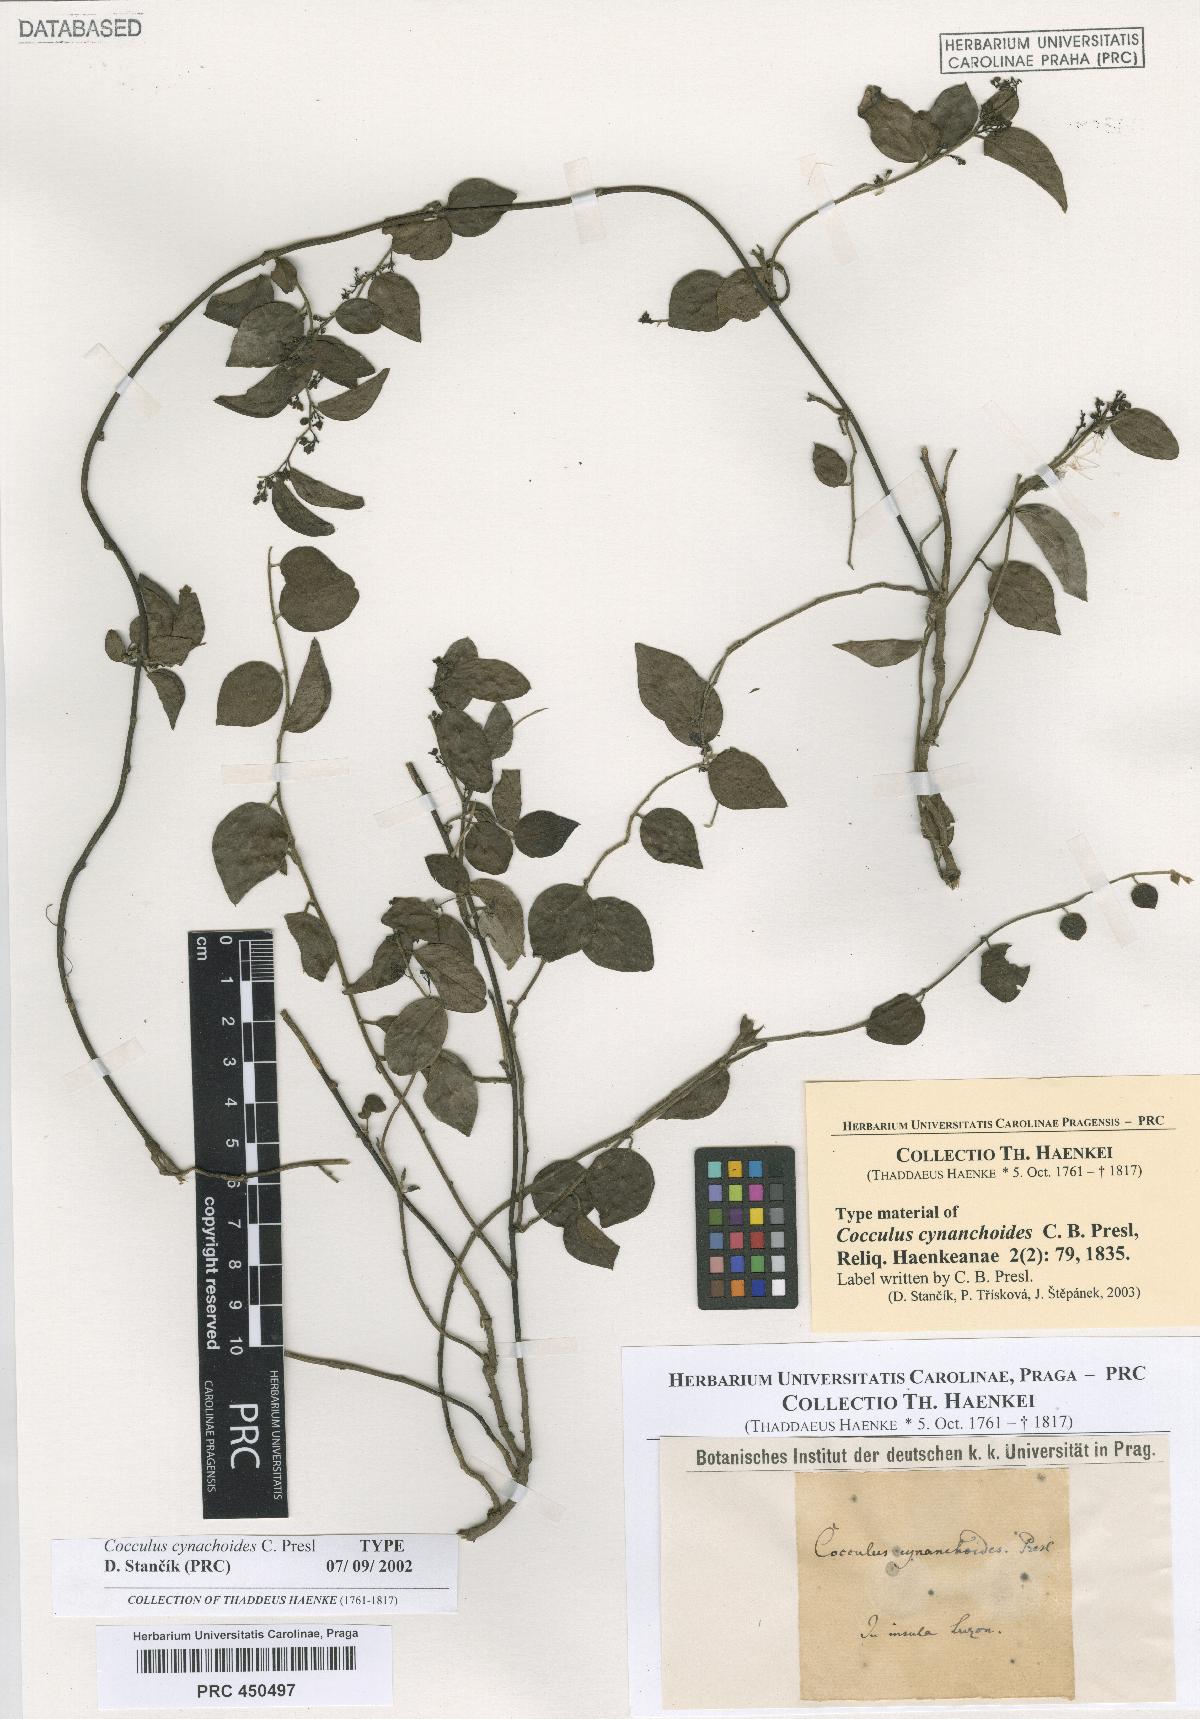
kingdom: Plantae
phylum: Tracheophyta
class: Magnoliopsida
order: Ranunculales
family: Menispermaceae
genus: Cocculus
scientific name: Cocculus orbiculatus
